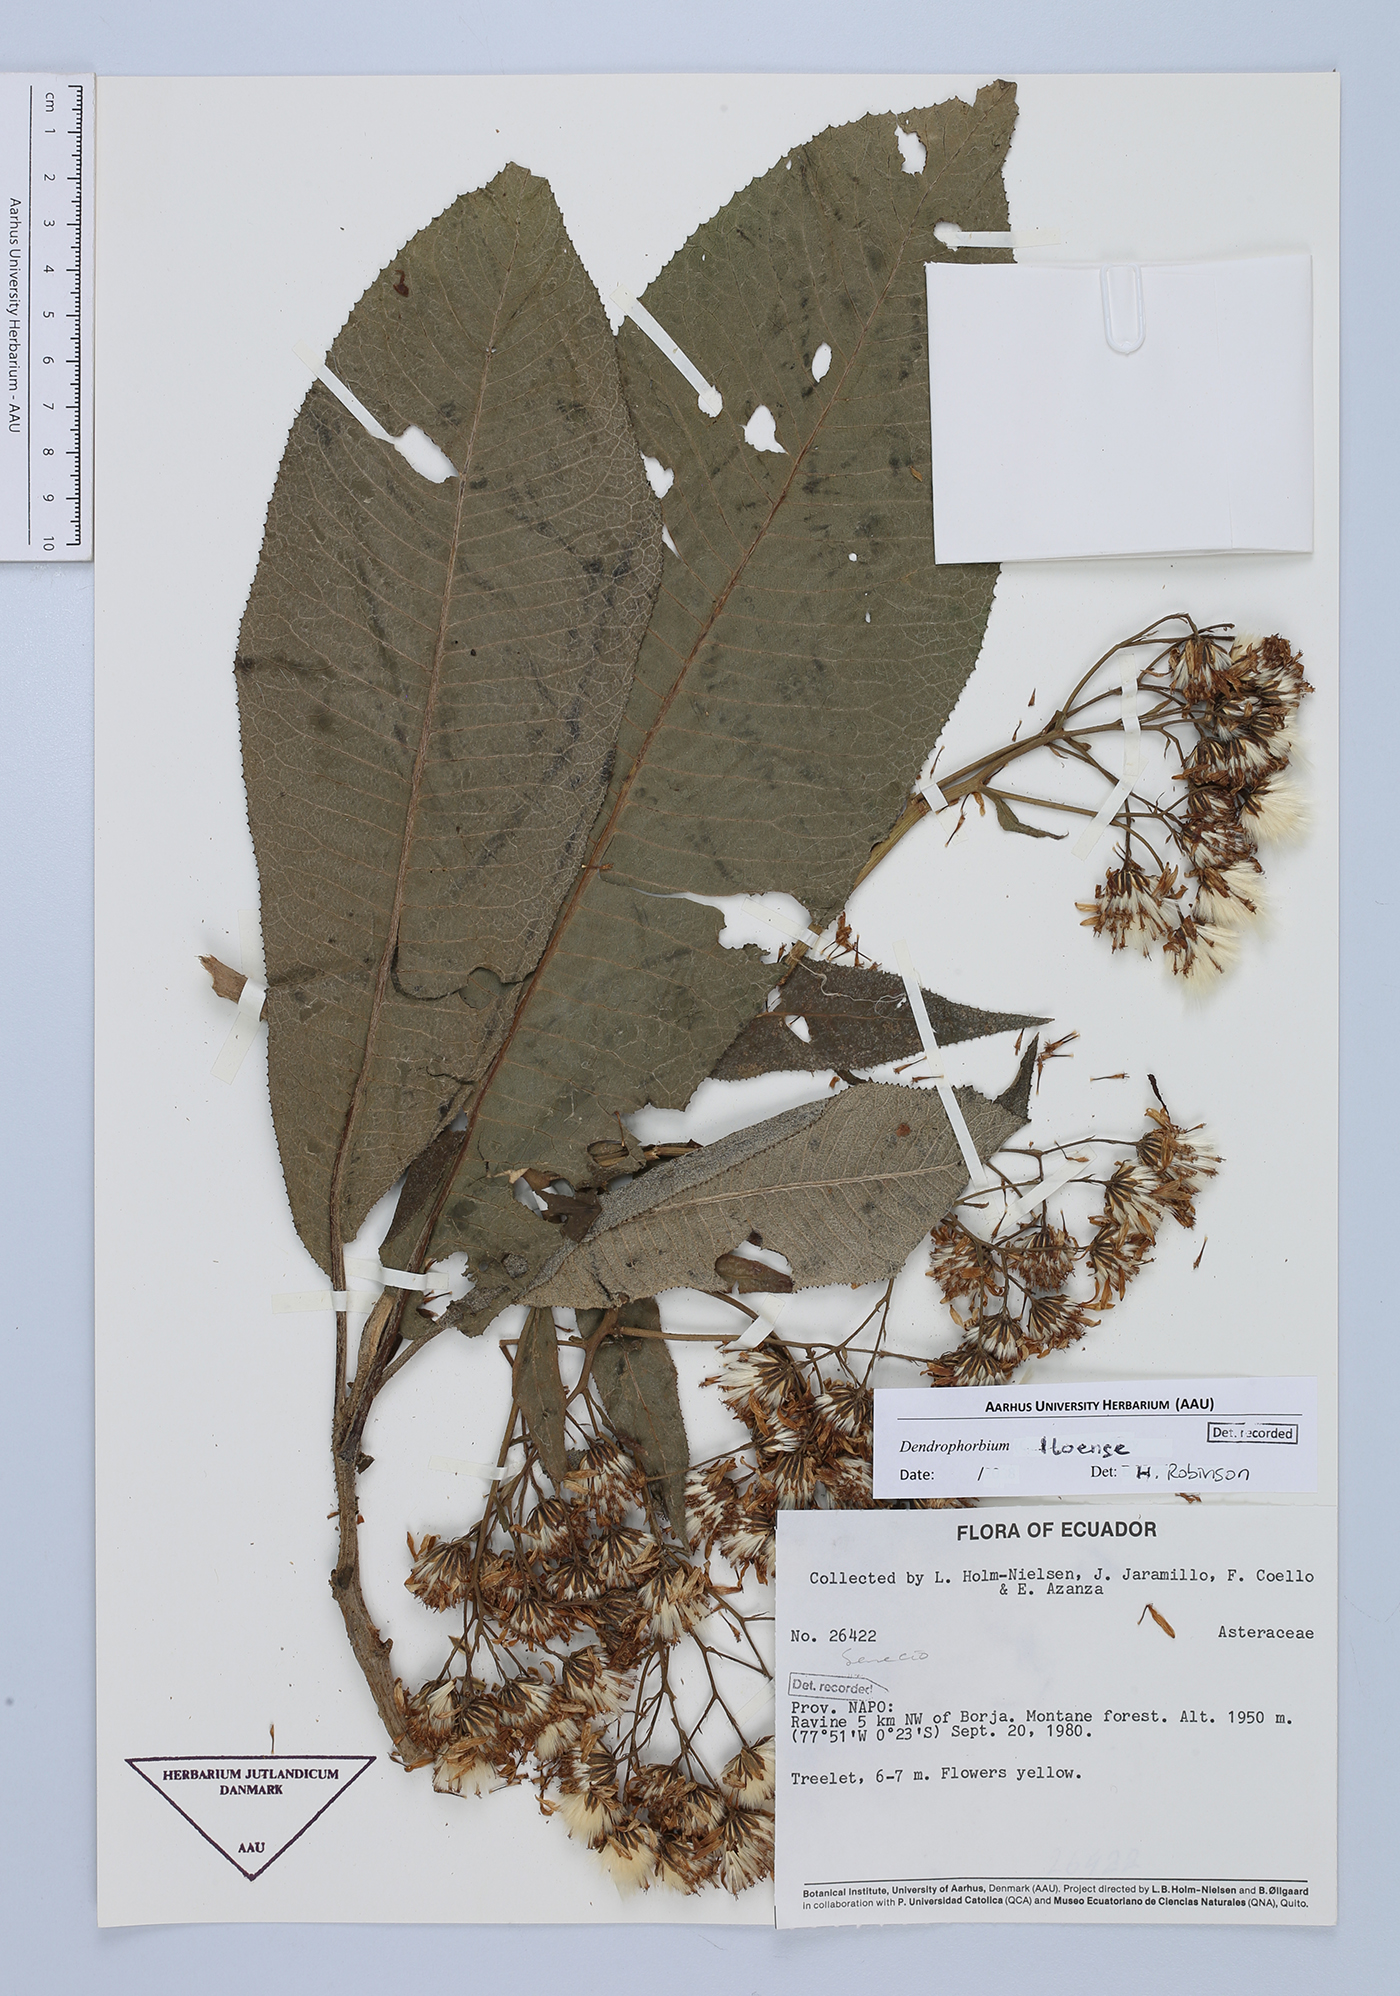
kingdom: Plantae
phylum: Tracheophyta
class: Magnoliopsida
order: Asterales
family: Asteraceae
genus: Dendrophorbium
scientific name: Dendrophorbium lloense
